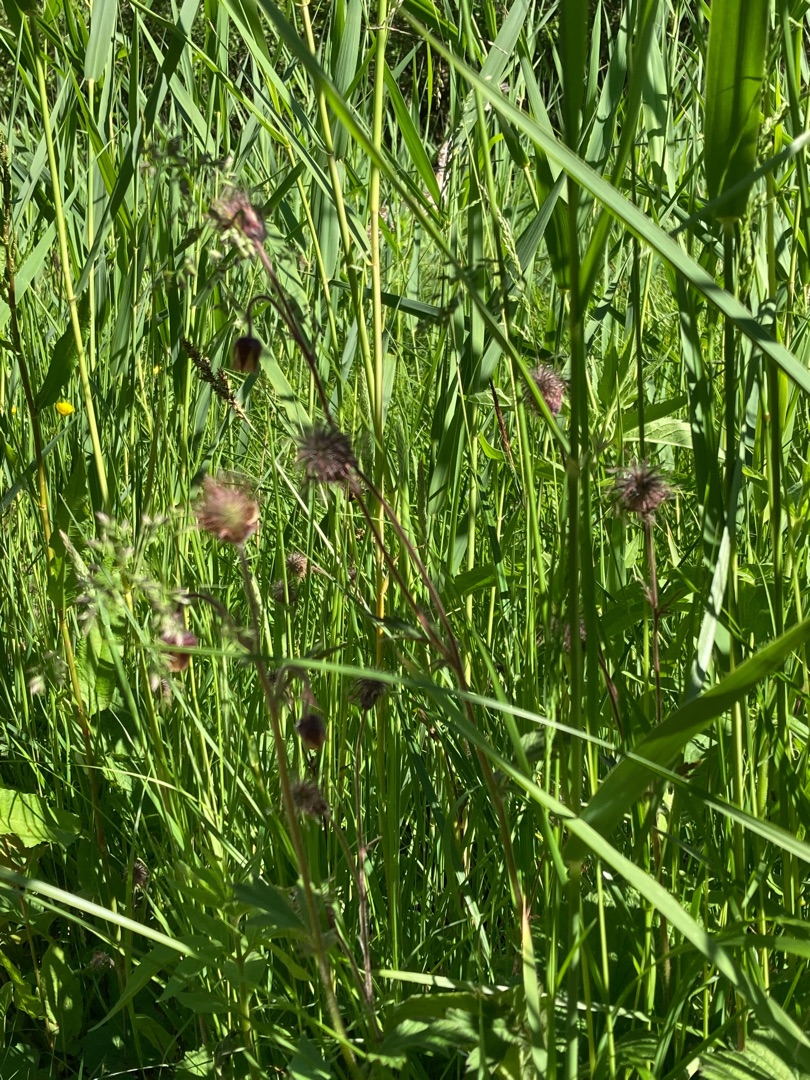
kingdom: Plantae
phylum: Tracheophyta
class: Magnoliopsida
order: Rosales
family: Rosaceae
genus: Geum
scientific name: Geum rivale
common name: Eng-nellikerod
